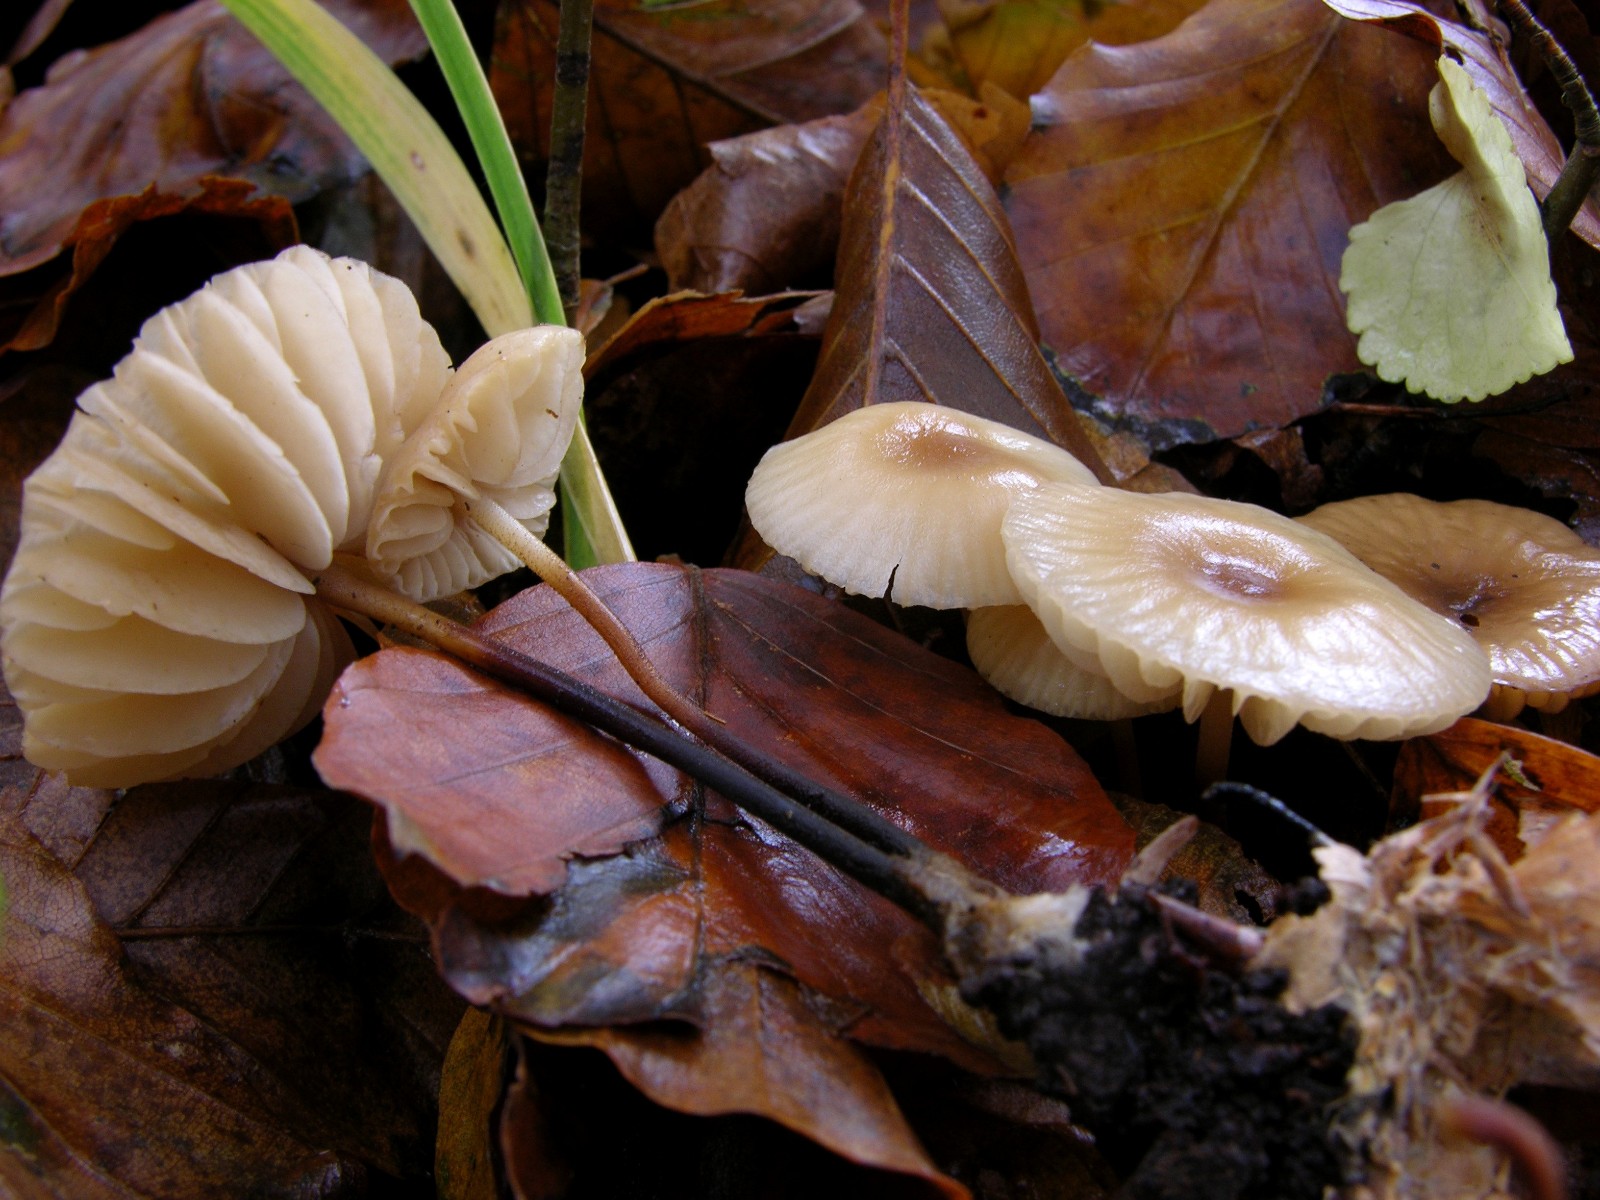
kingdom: Fungi
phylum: Basidiomycota
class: Agaricomycetes
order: Agaricales
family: Marasmiaceae
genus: Marasmius
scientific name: Marasmius torquescens
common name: filtfodet bruskhat
